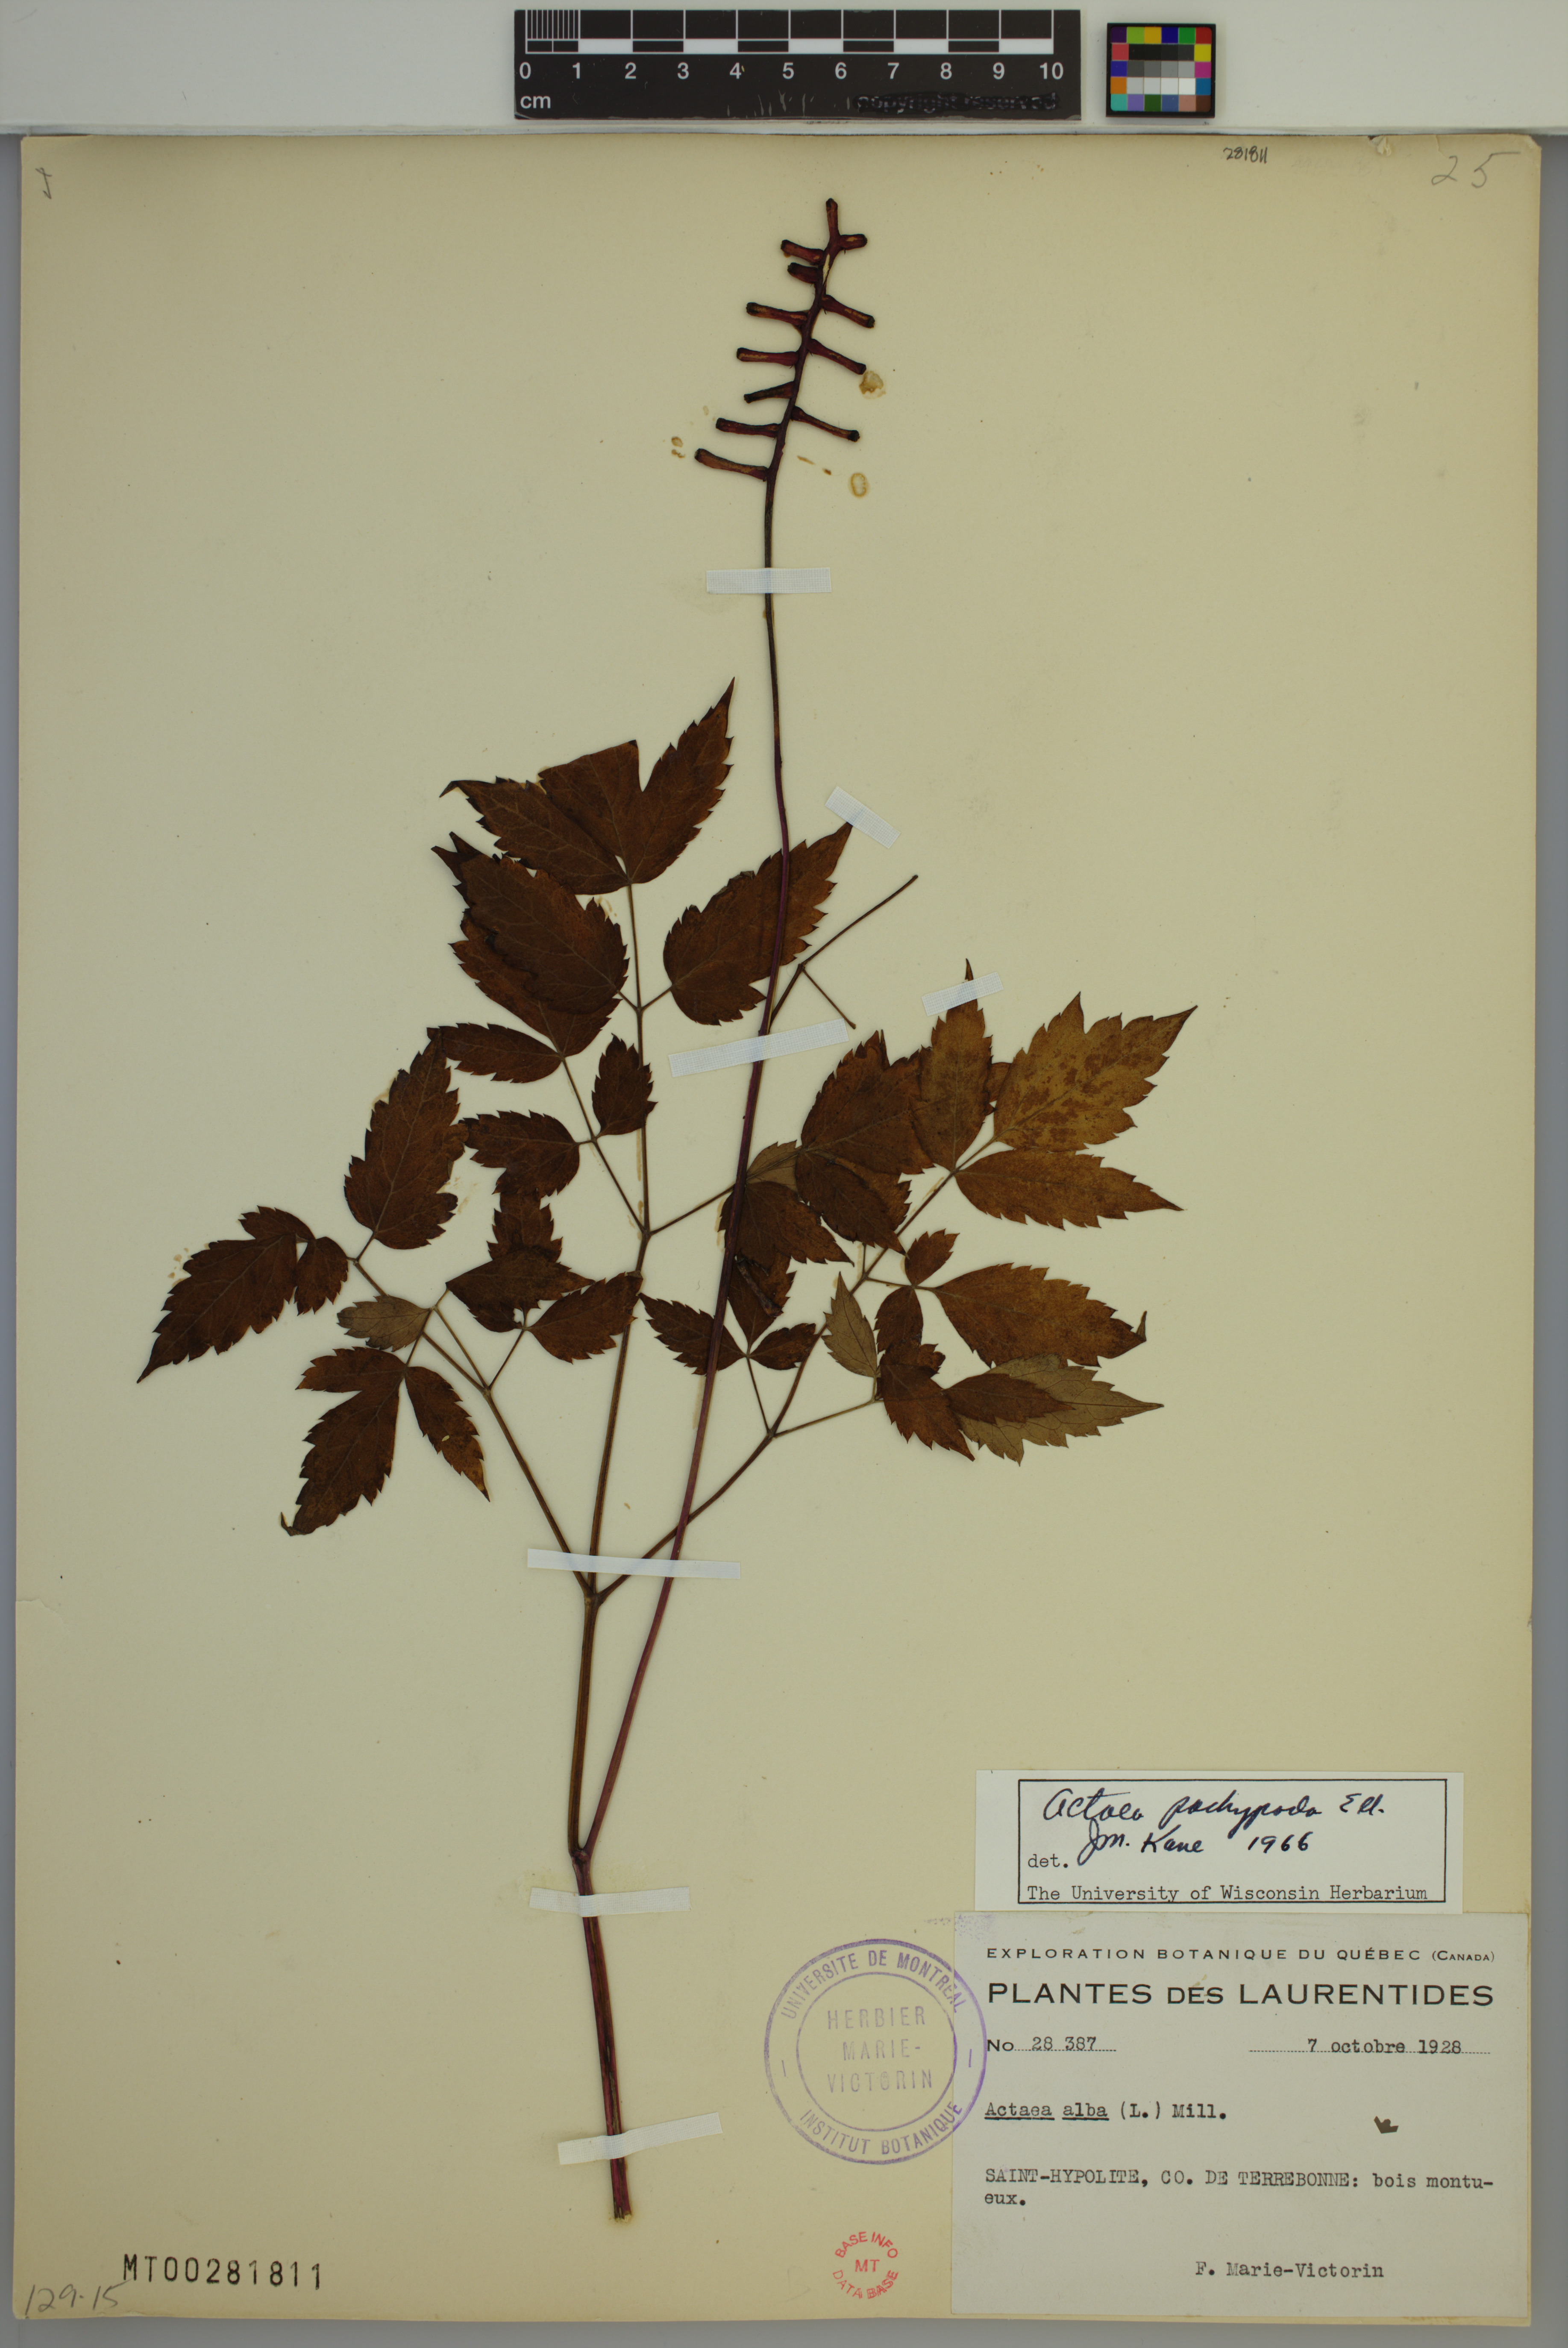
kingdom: Plantae
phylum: Tracheophyta
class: Magnoliopsida
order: Ranunculales
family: Ranunculaceae
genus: Actaea
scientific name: Actaea pachypoda
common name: Doll's-eyes
